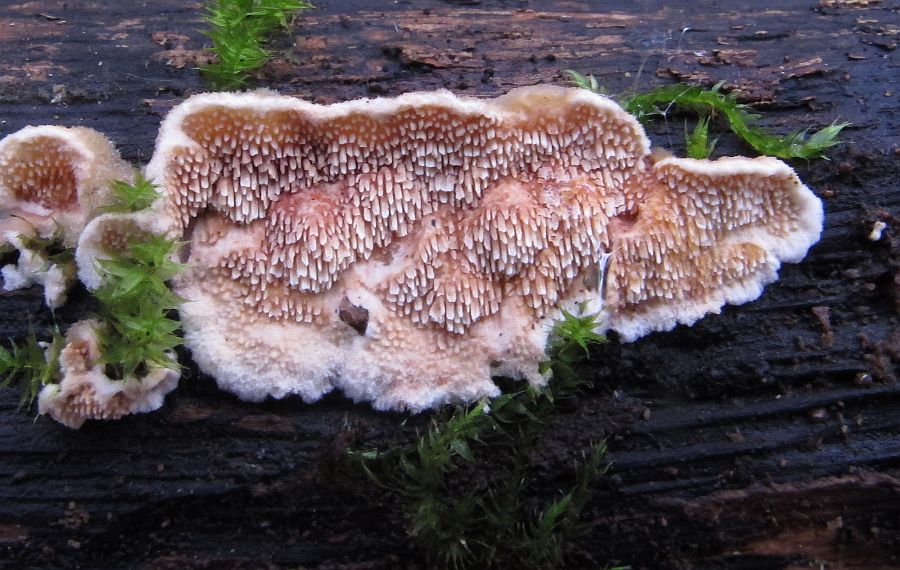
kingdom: Fungi
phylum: Basidiomycota
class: Agaricomycetes
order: Polyporales
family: Steccherinaceae
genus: Steccherinum
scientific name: Steccherinum bourdotii
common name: hat-skønpig
